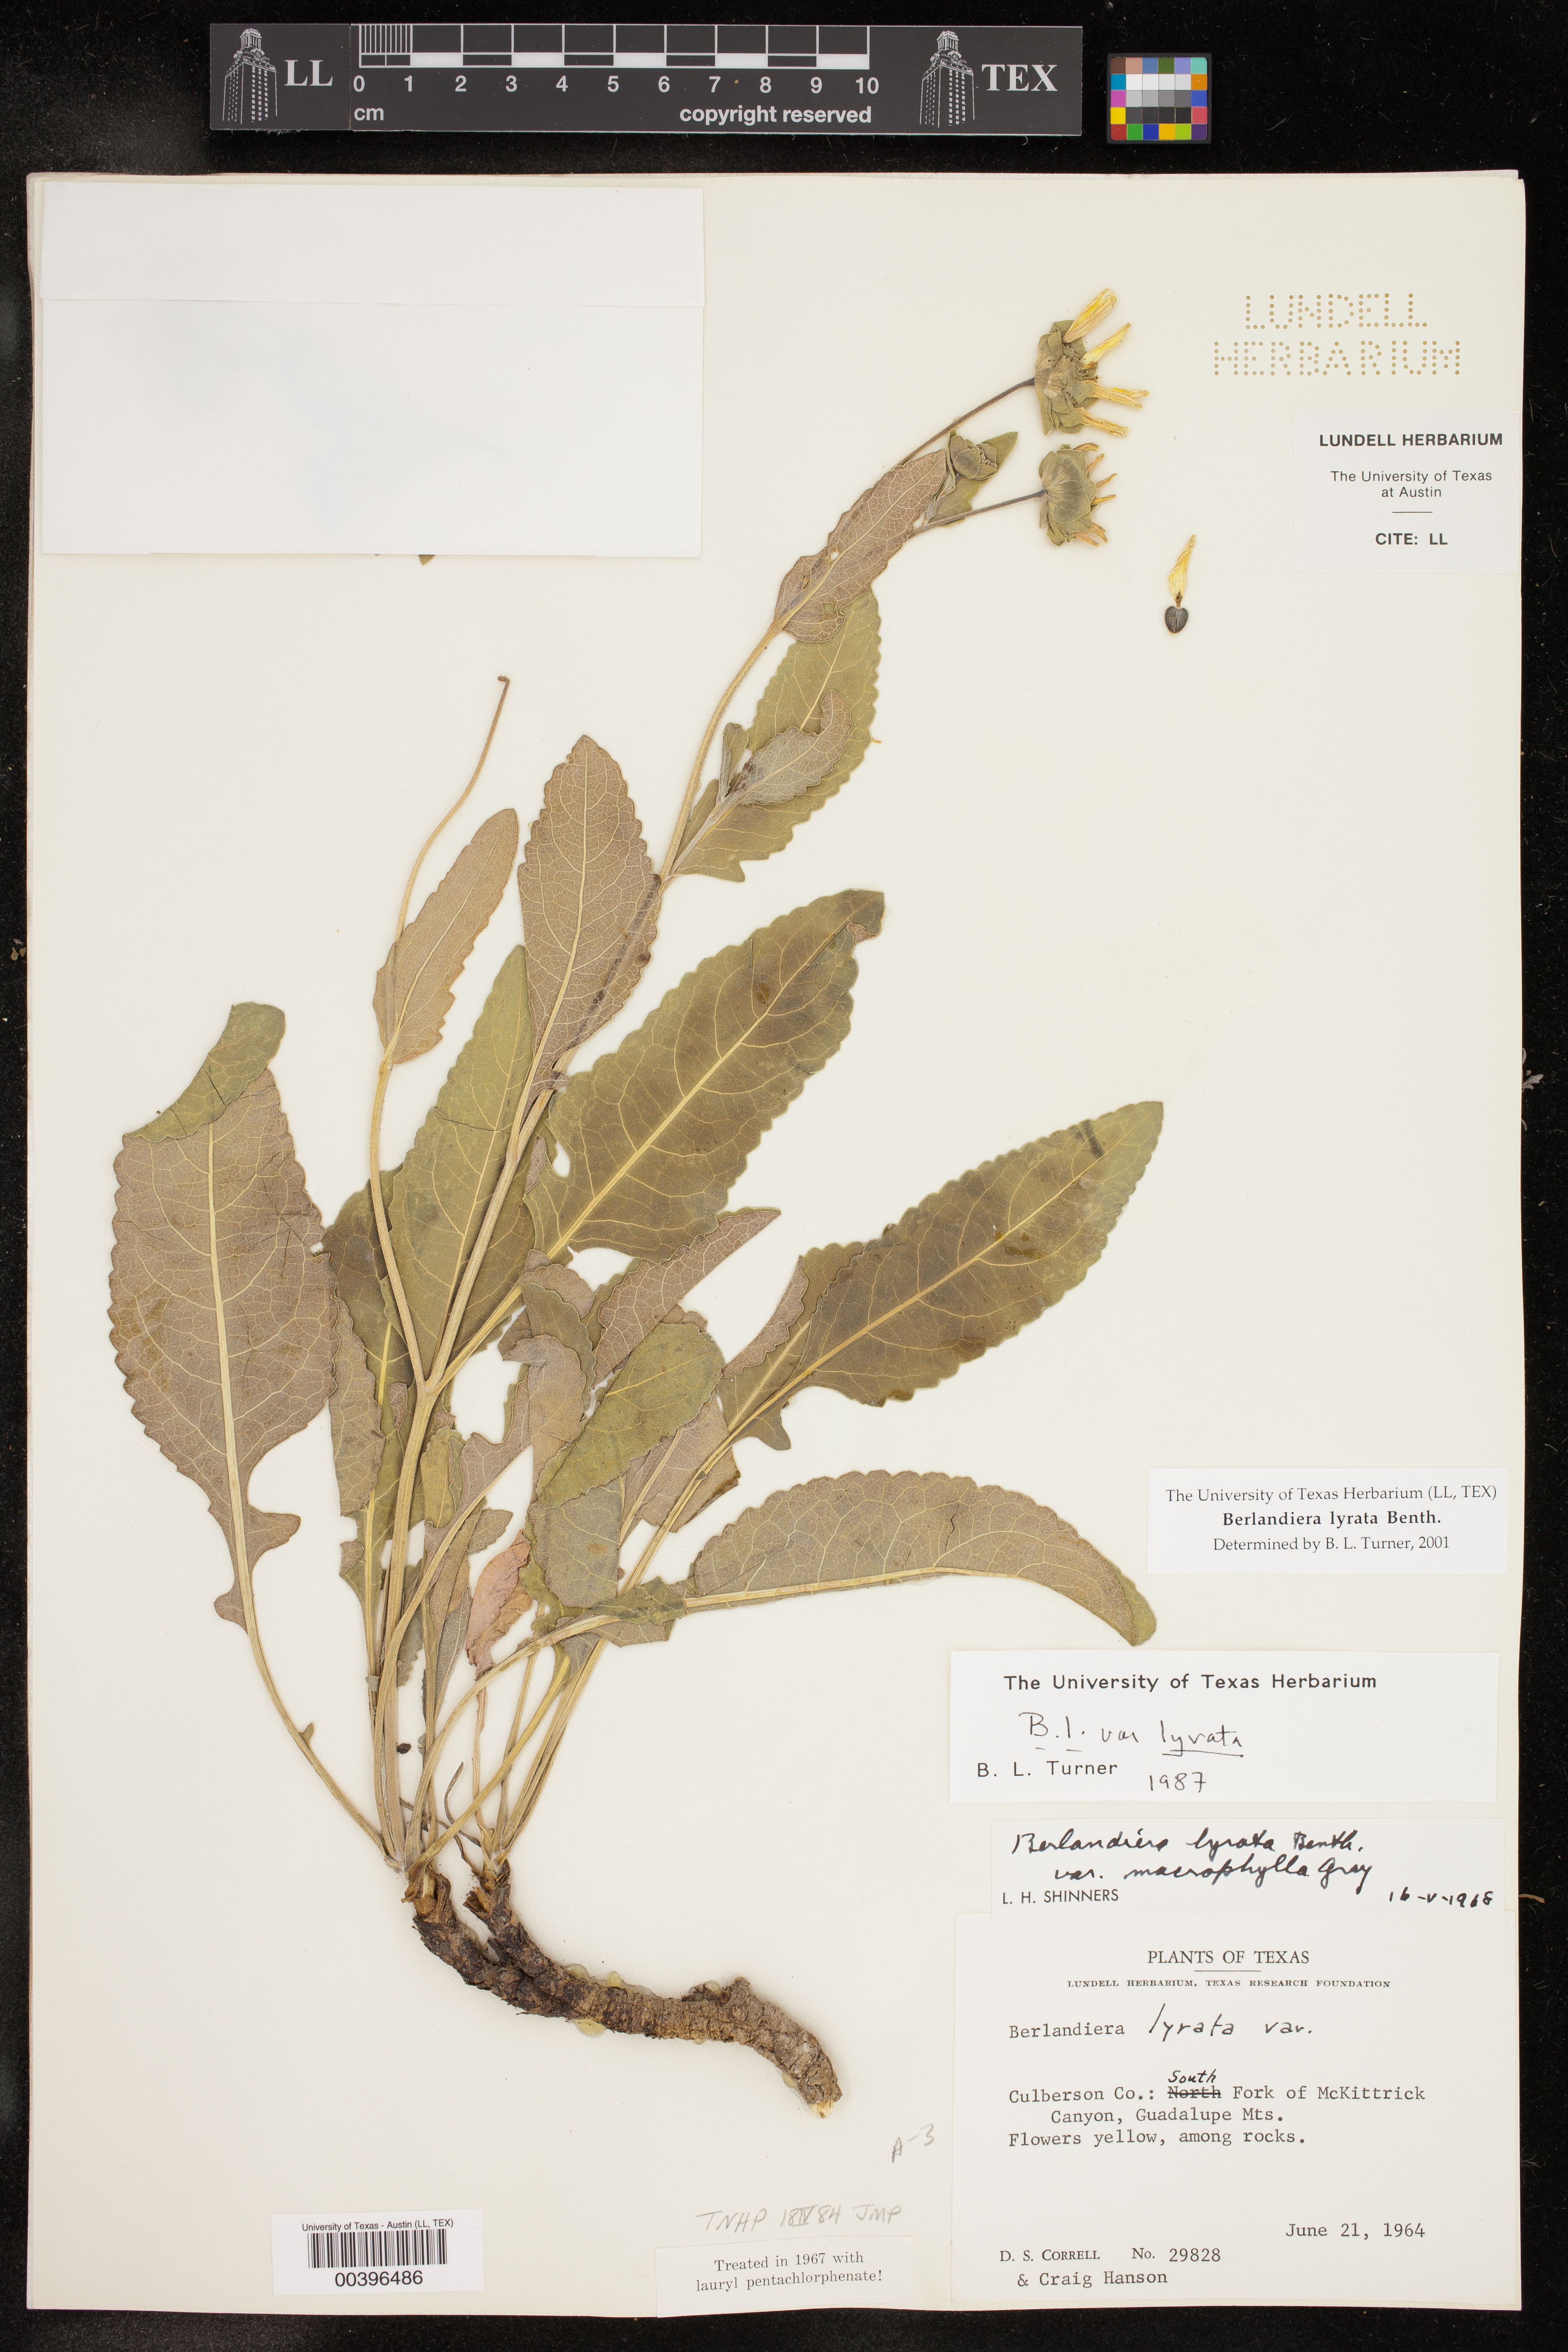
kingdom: Plantae
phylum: Tracheophyta
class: Magnoliopsida
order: Asterales
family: Asteraceae
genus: Berlandiera
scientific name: Berlandiera macvaughii
